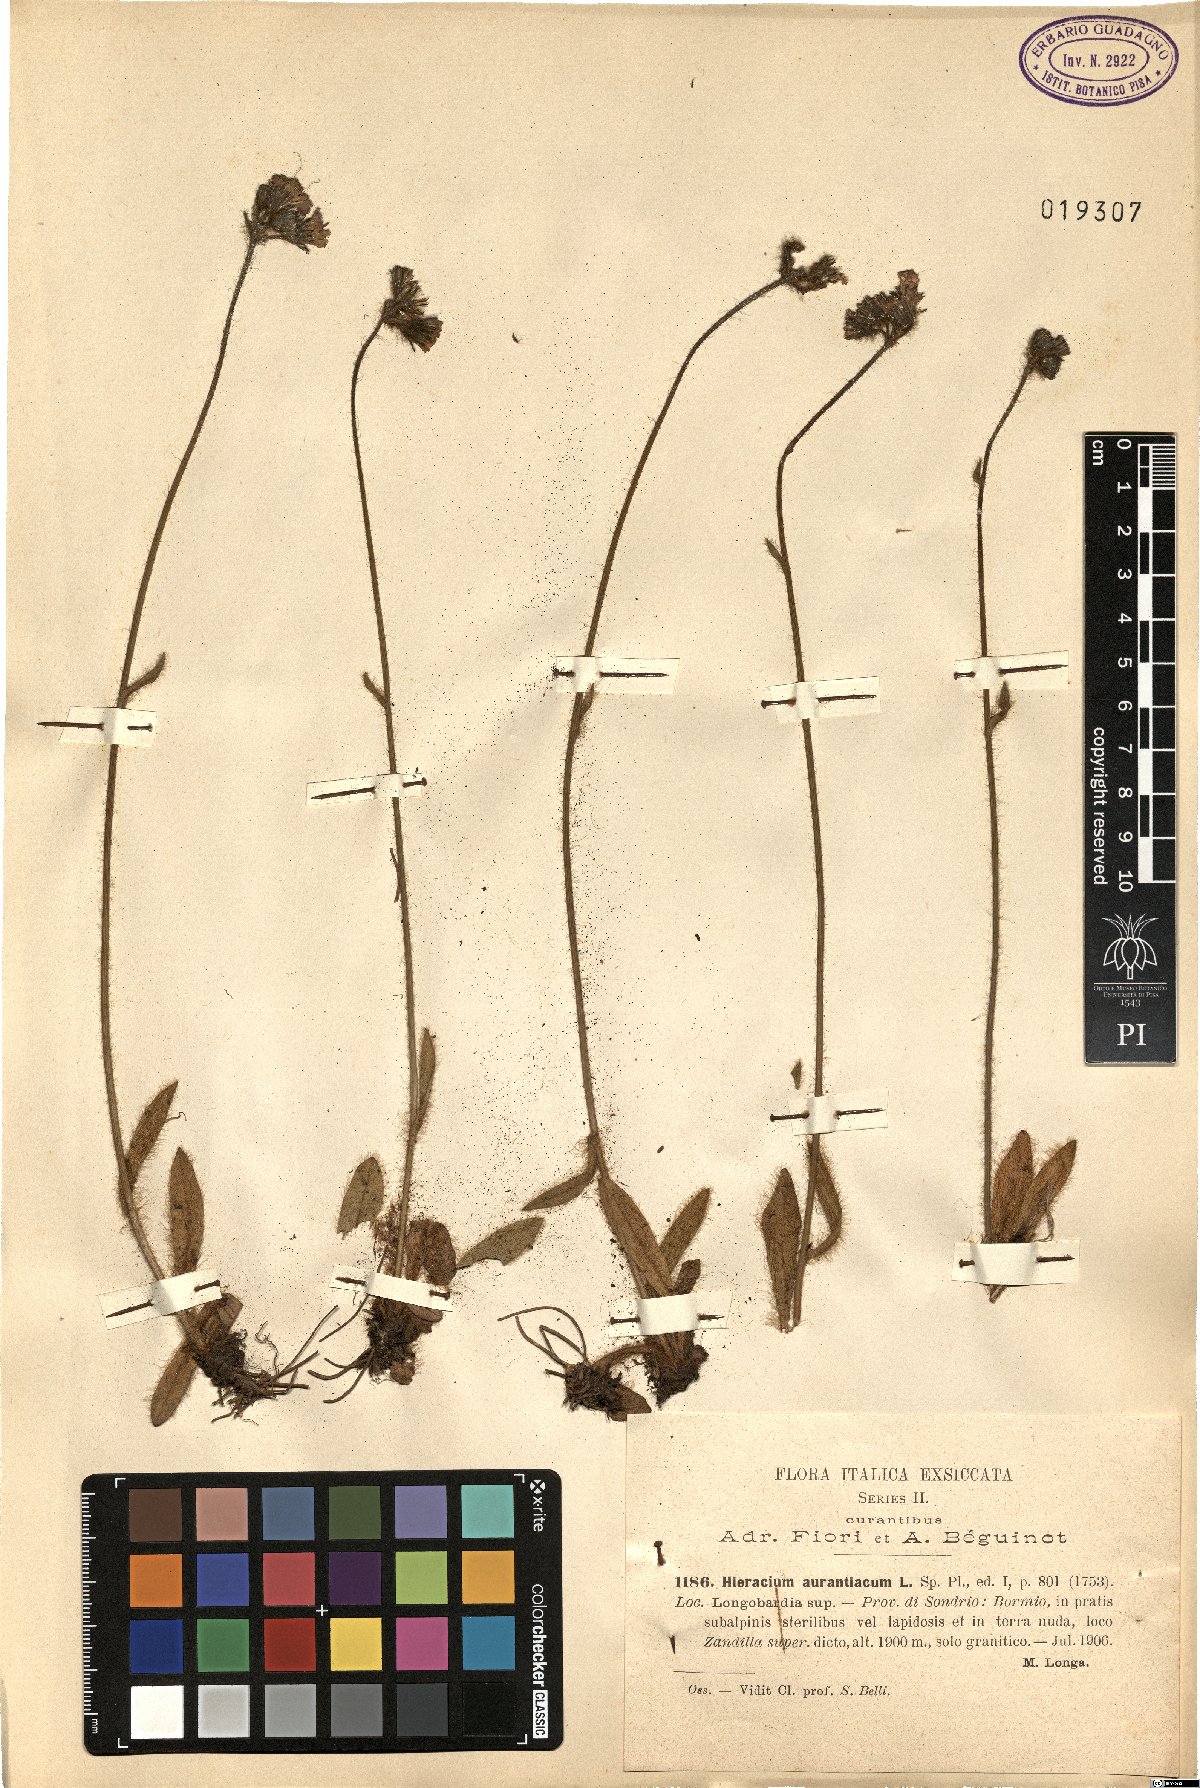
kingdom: Plantae
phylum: Tracheophyta
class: Magnoliopsida
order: Asterales
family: Asteraceae
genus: Pilosella
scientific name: Pilosella aurantiaca
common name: Fox-and-cubs
